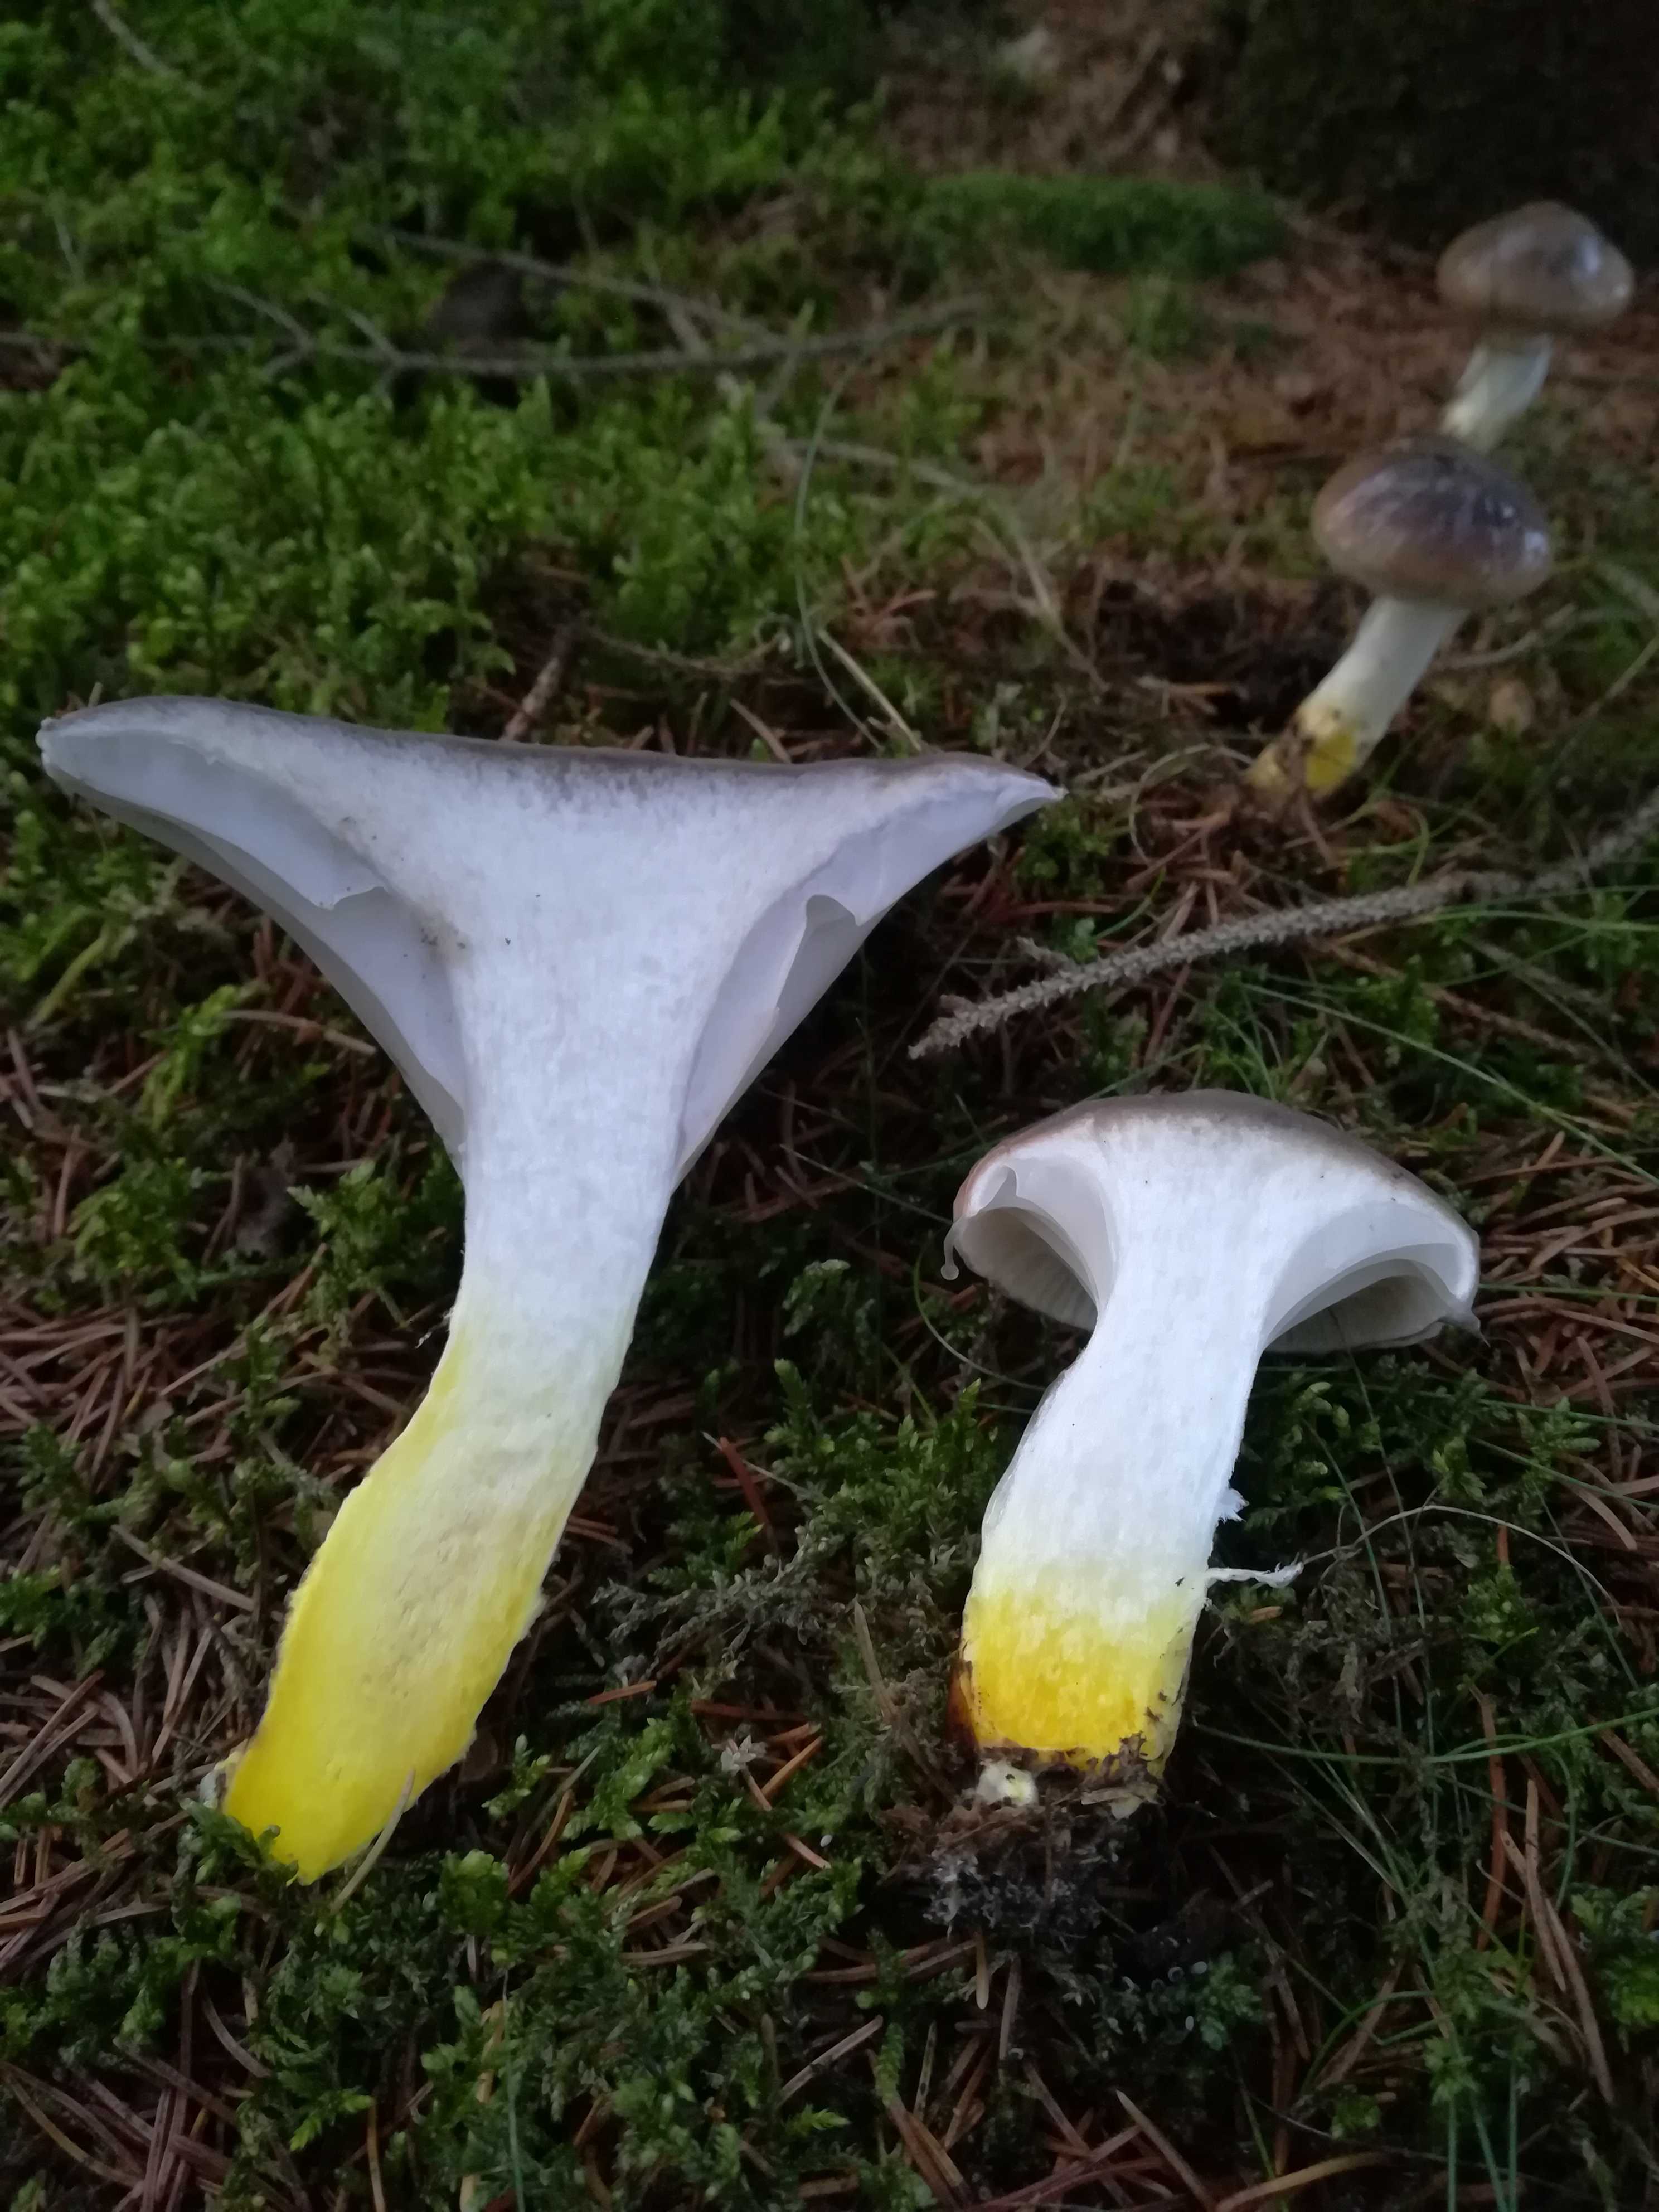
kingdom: Fungi
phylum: Basidiomycota
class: Agaricomycetes
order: Boletales
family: Gomphidiaceae
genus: Gomphidius
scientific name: Gomphidius glutinosus
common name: grå slimslør
